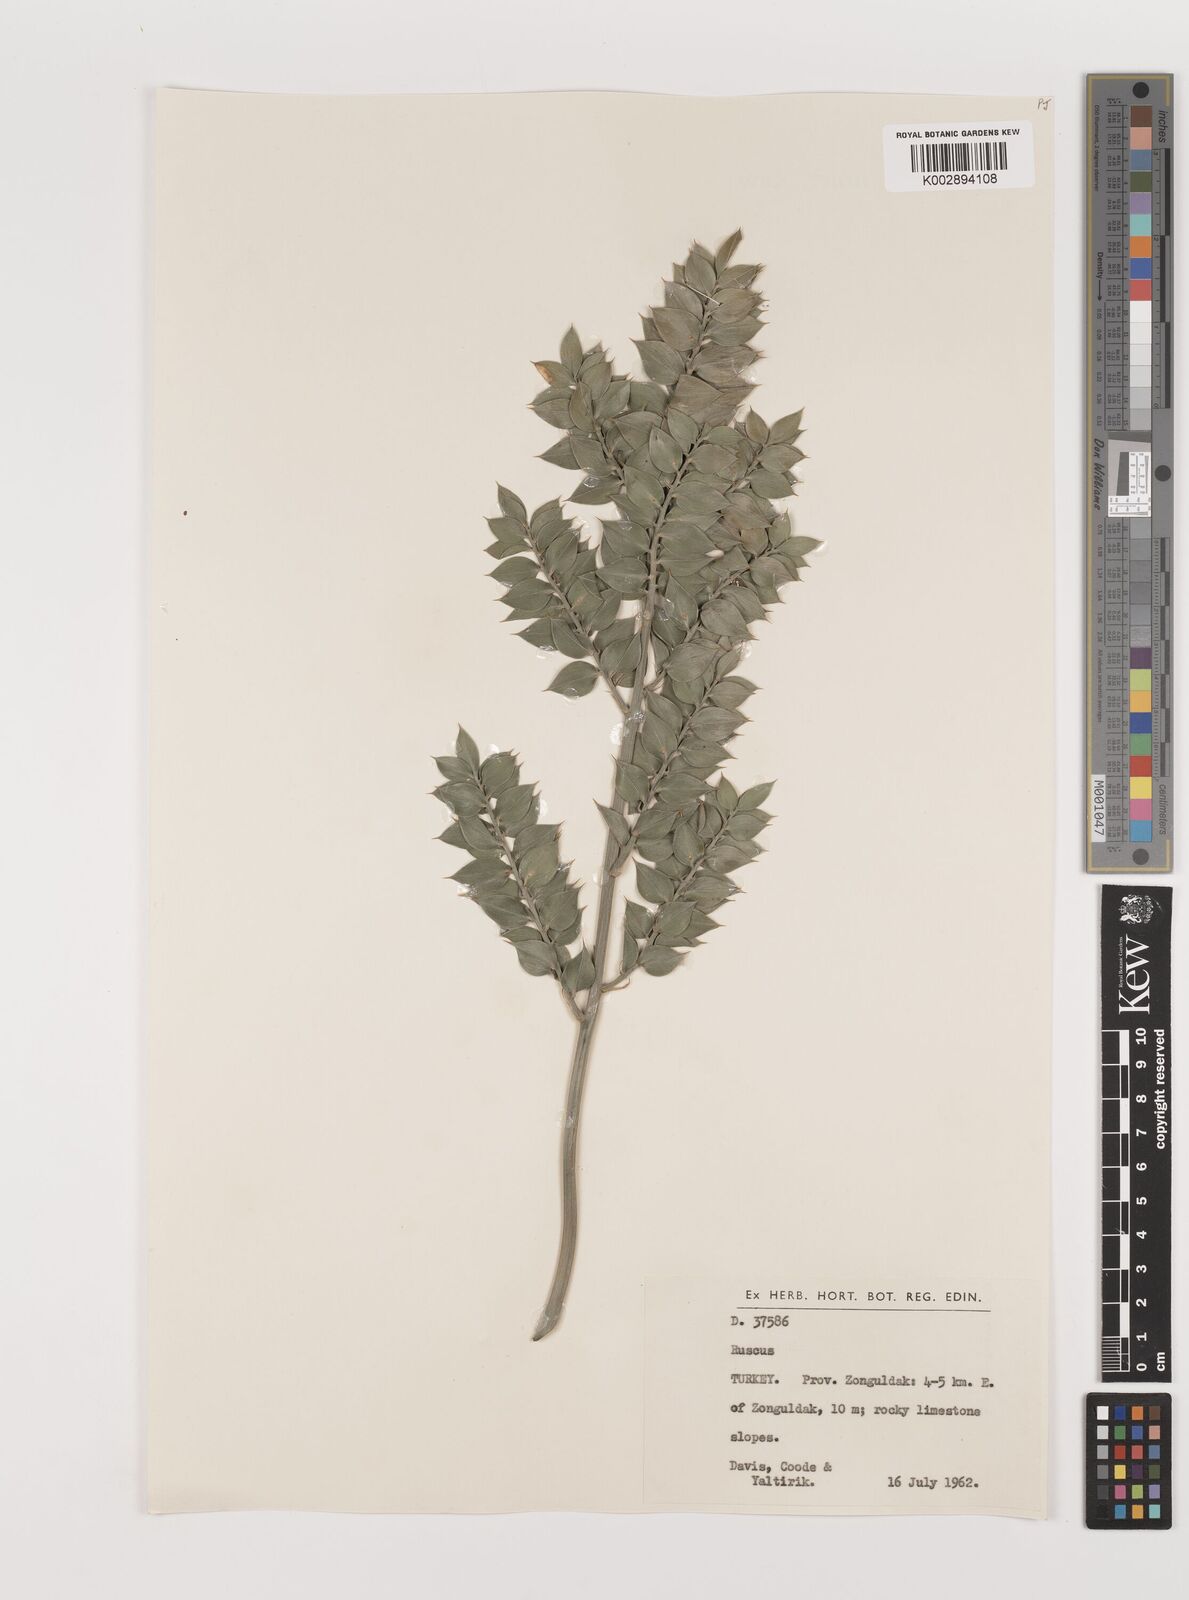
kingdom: Plantae
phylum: Tracheophyta
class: Liliopsida
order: Asparagales
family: Asparagaceae
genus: Ruscus
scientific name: Ruscus aculeatus
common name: Butcher's-broom
